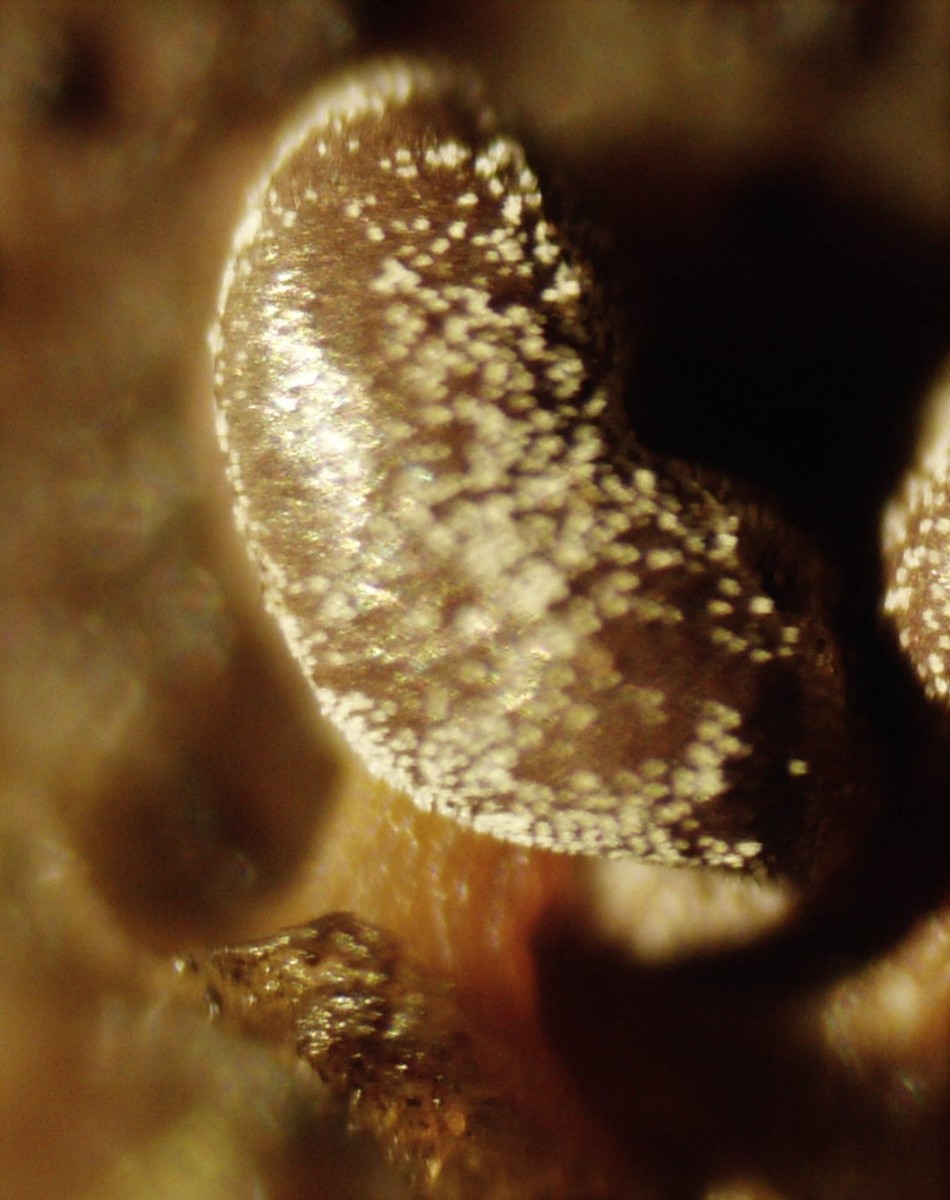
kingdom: Protozoa
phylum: Mycetozoa
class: Myxomycetes
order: Physarales
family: Didymiaceae
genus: Didymium
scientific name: Didymium clavus
